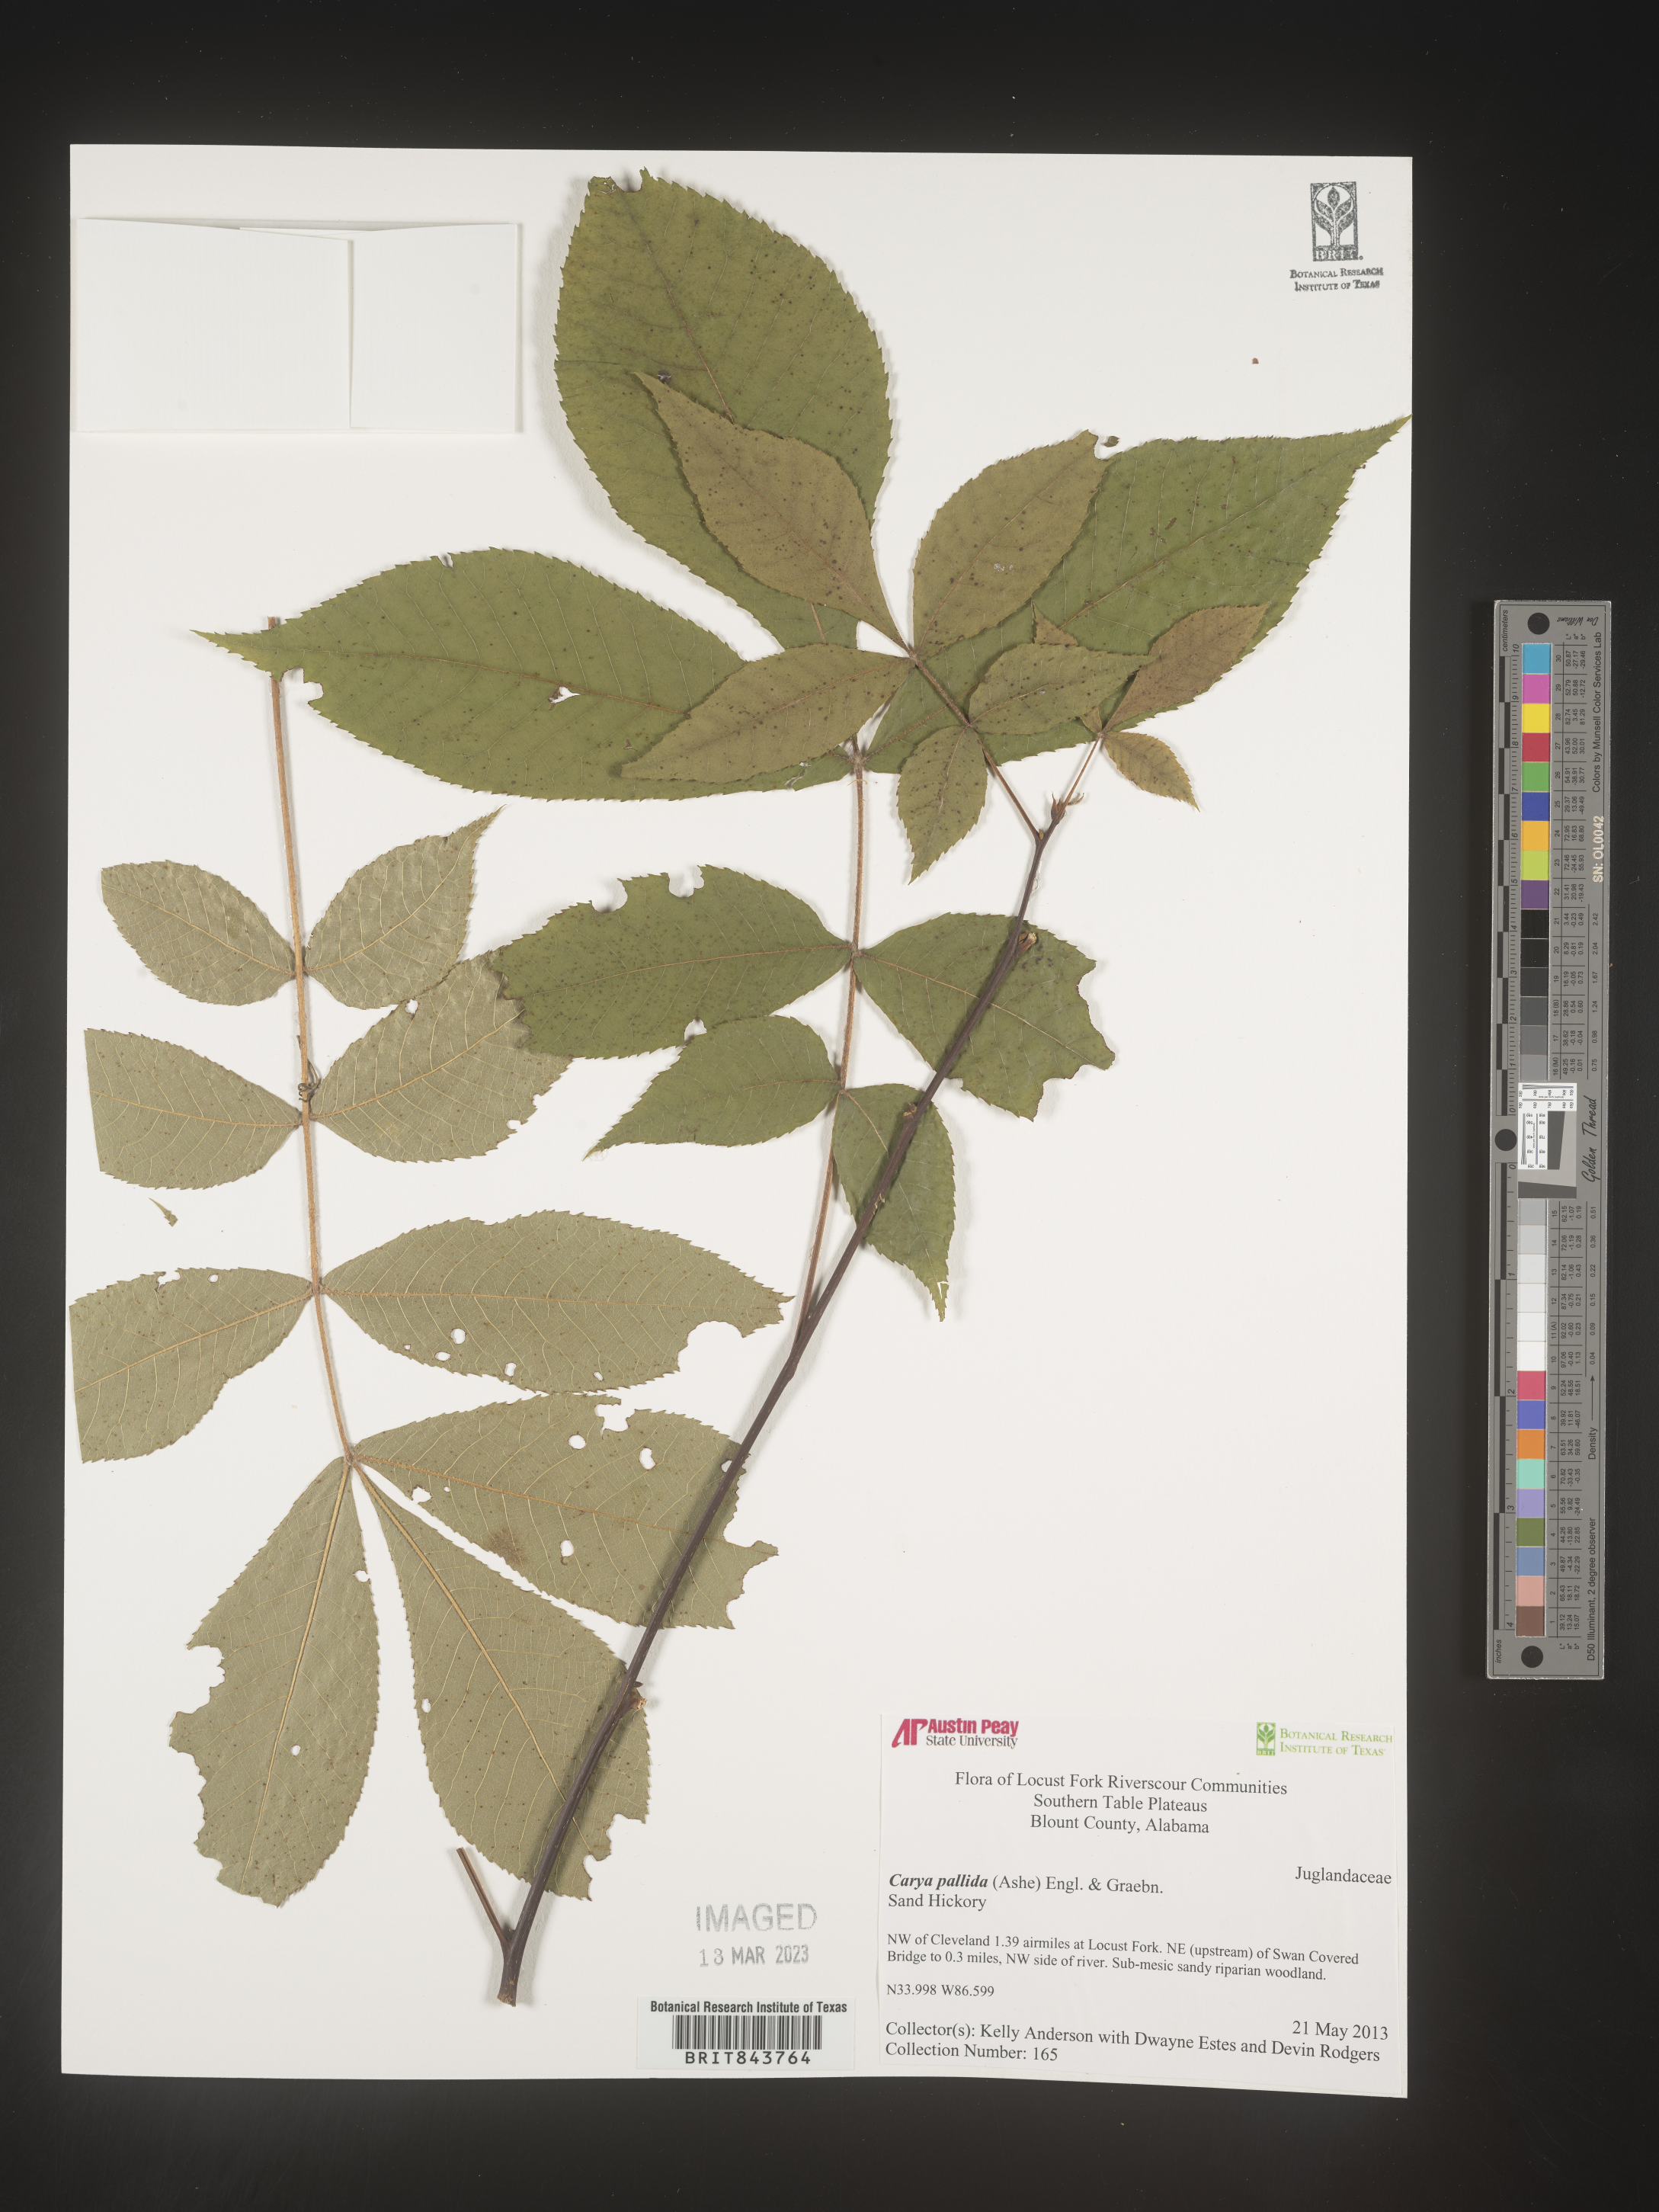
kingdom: Plantae
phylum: Tracheophyta
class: Magnoliopsida
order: Fagales
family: Juglandaceae
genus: Carya
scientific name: Carya pallida
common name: Sand hickory
